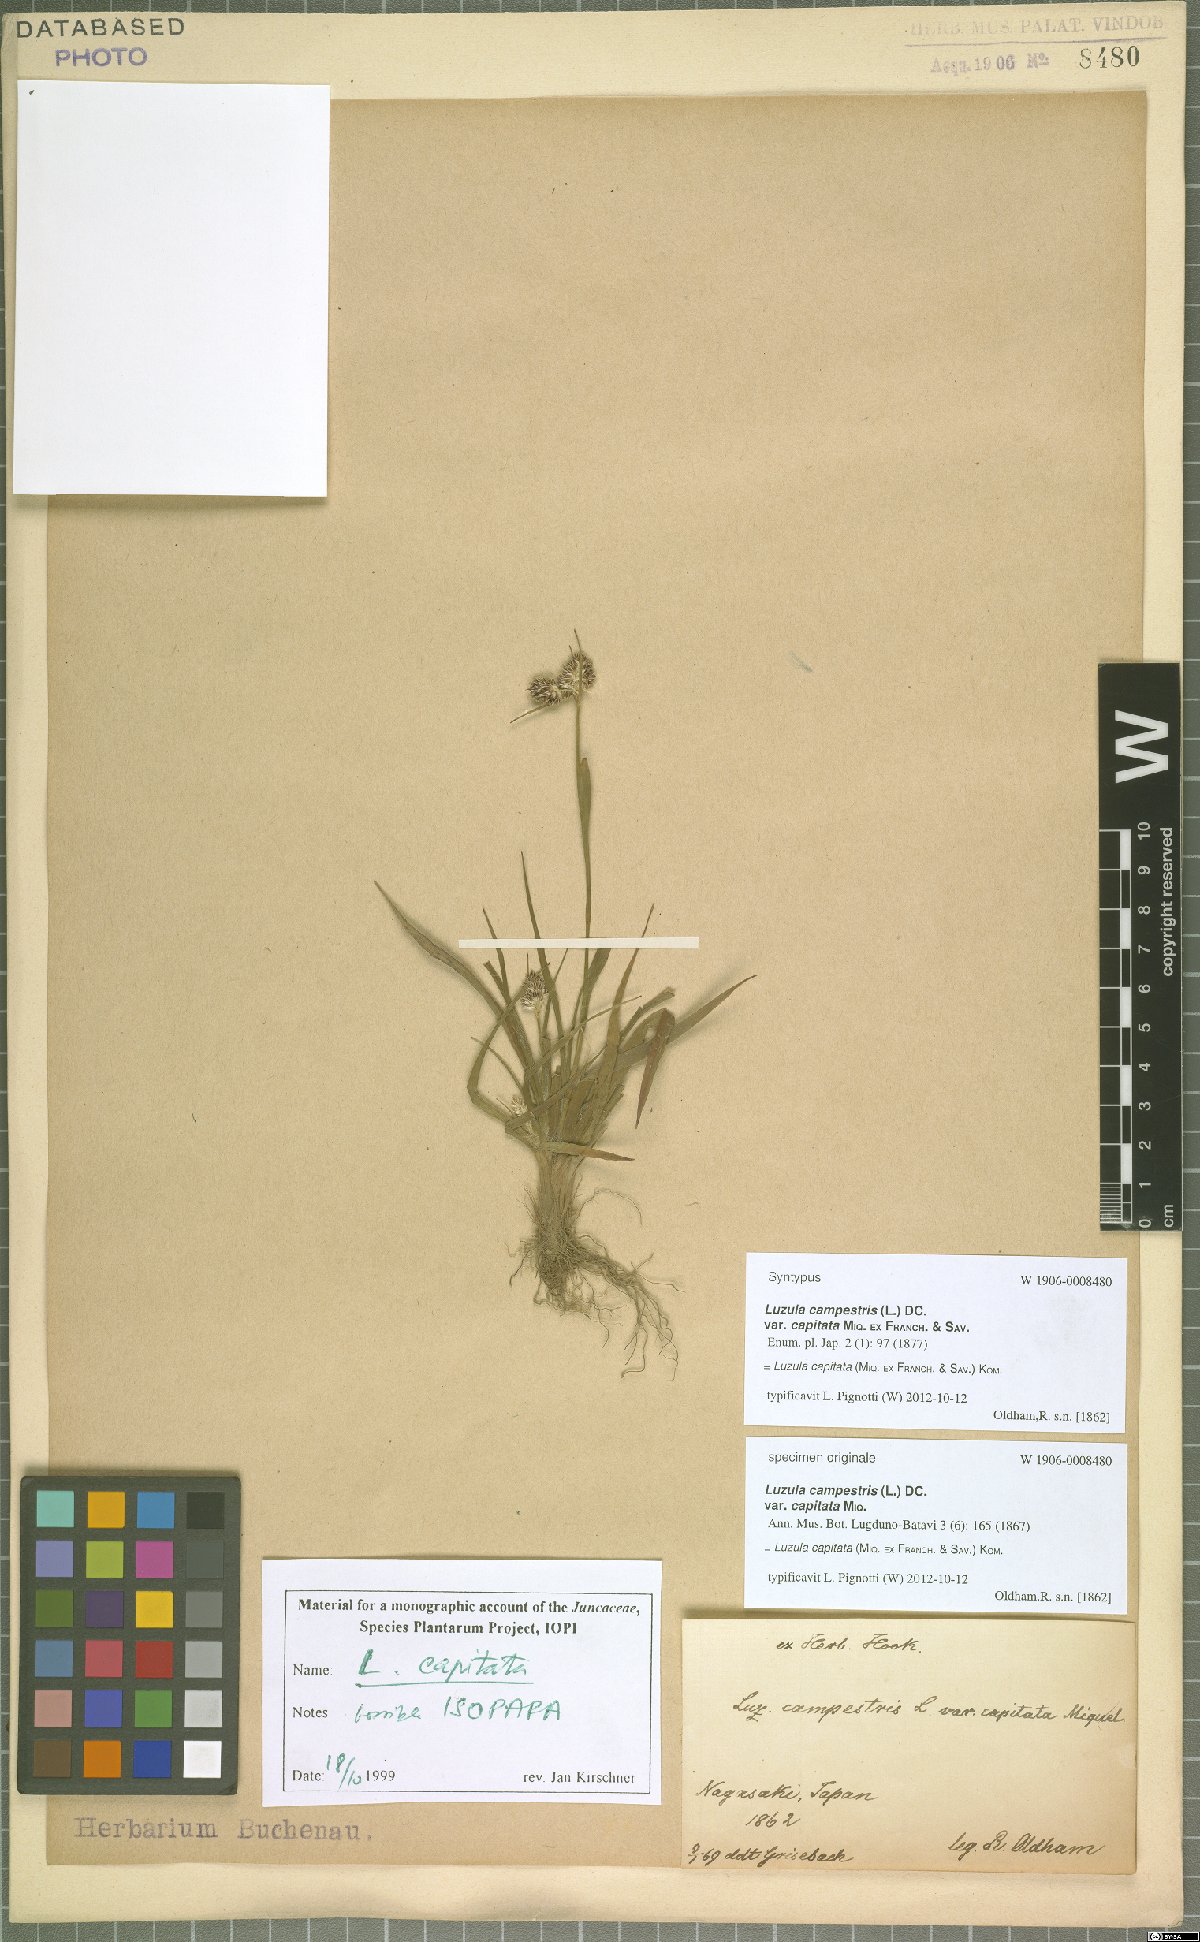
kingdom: Plantae
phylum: Tracheophyta
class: Liliopsida
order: Poales
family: Juncaceae
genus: Luzula
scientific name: Luzula capitata
